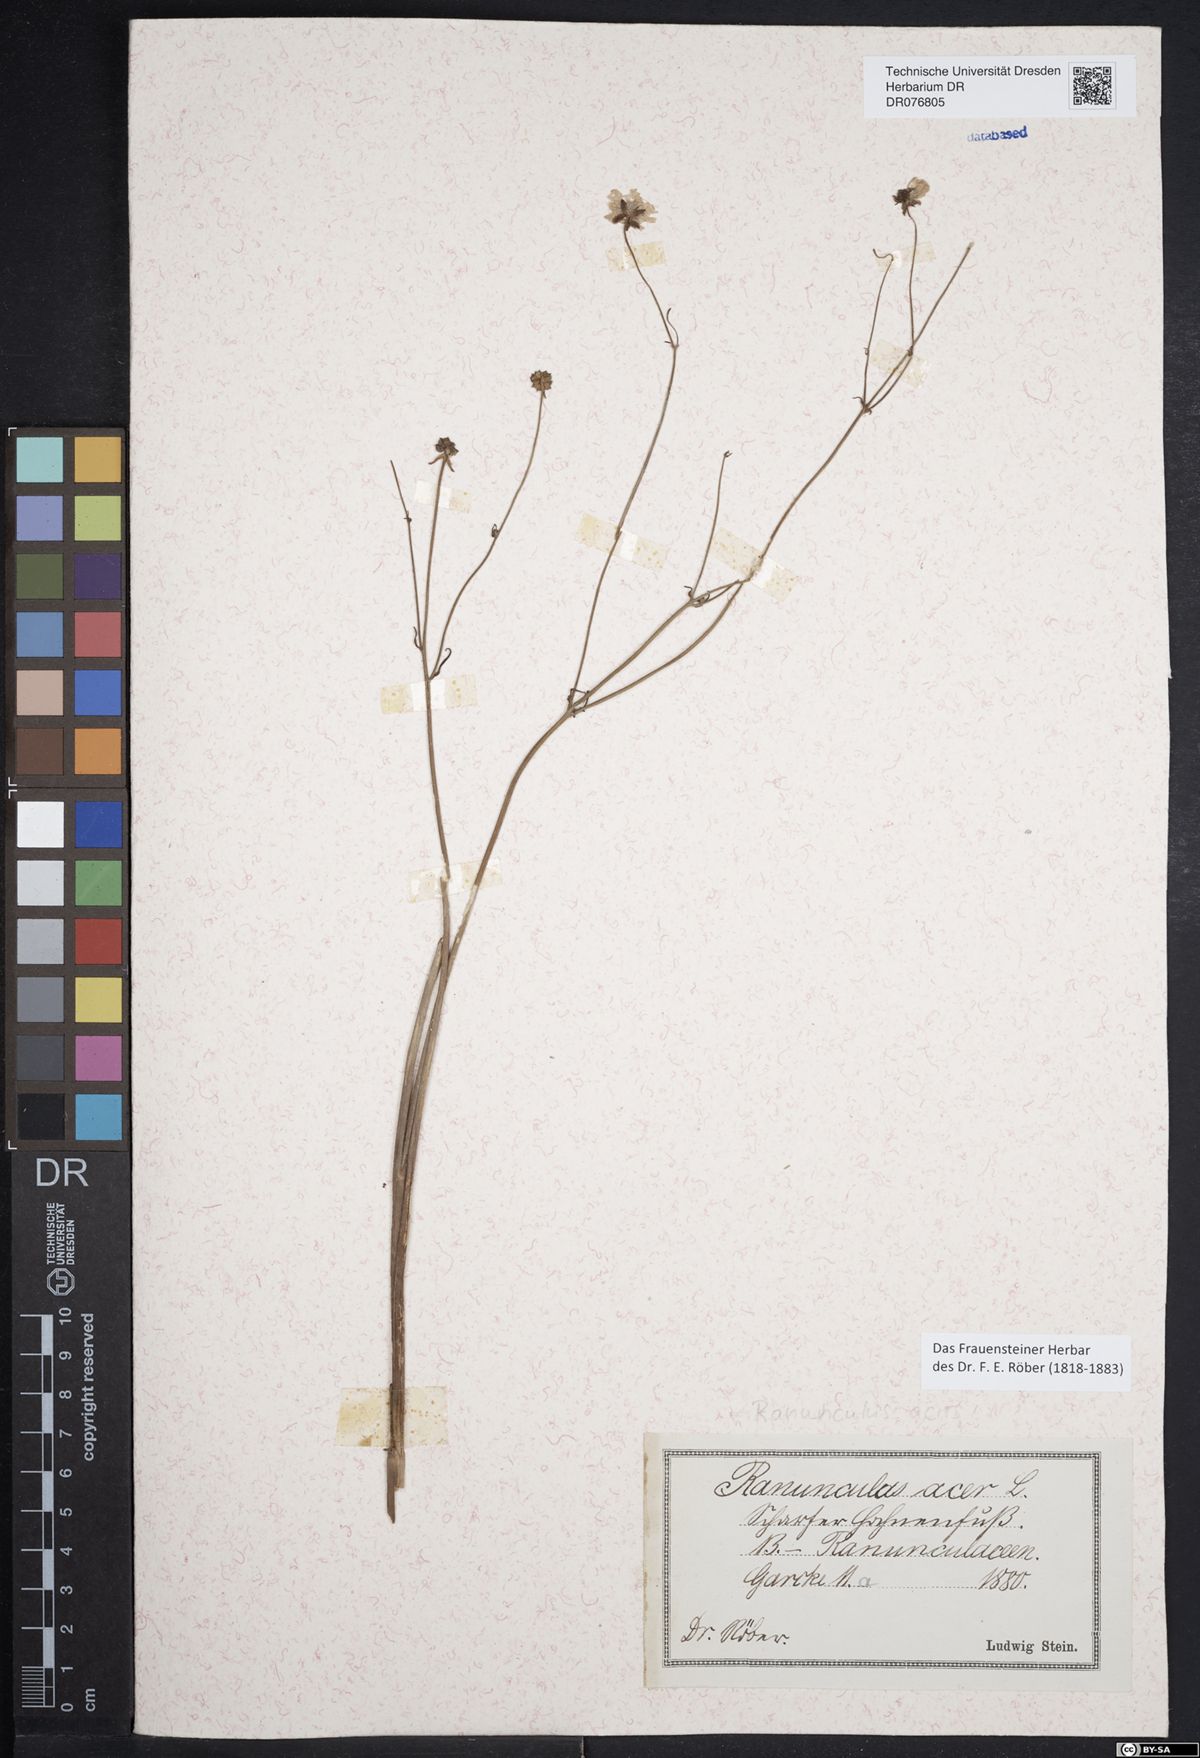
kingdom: Plantae
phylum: Tracheophyta
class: Magnoliopsida
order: Ranunculales
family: Ranunculaceae
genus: Ranunculus
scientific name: Ranunculus acris
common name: Meadow buttercup
